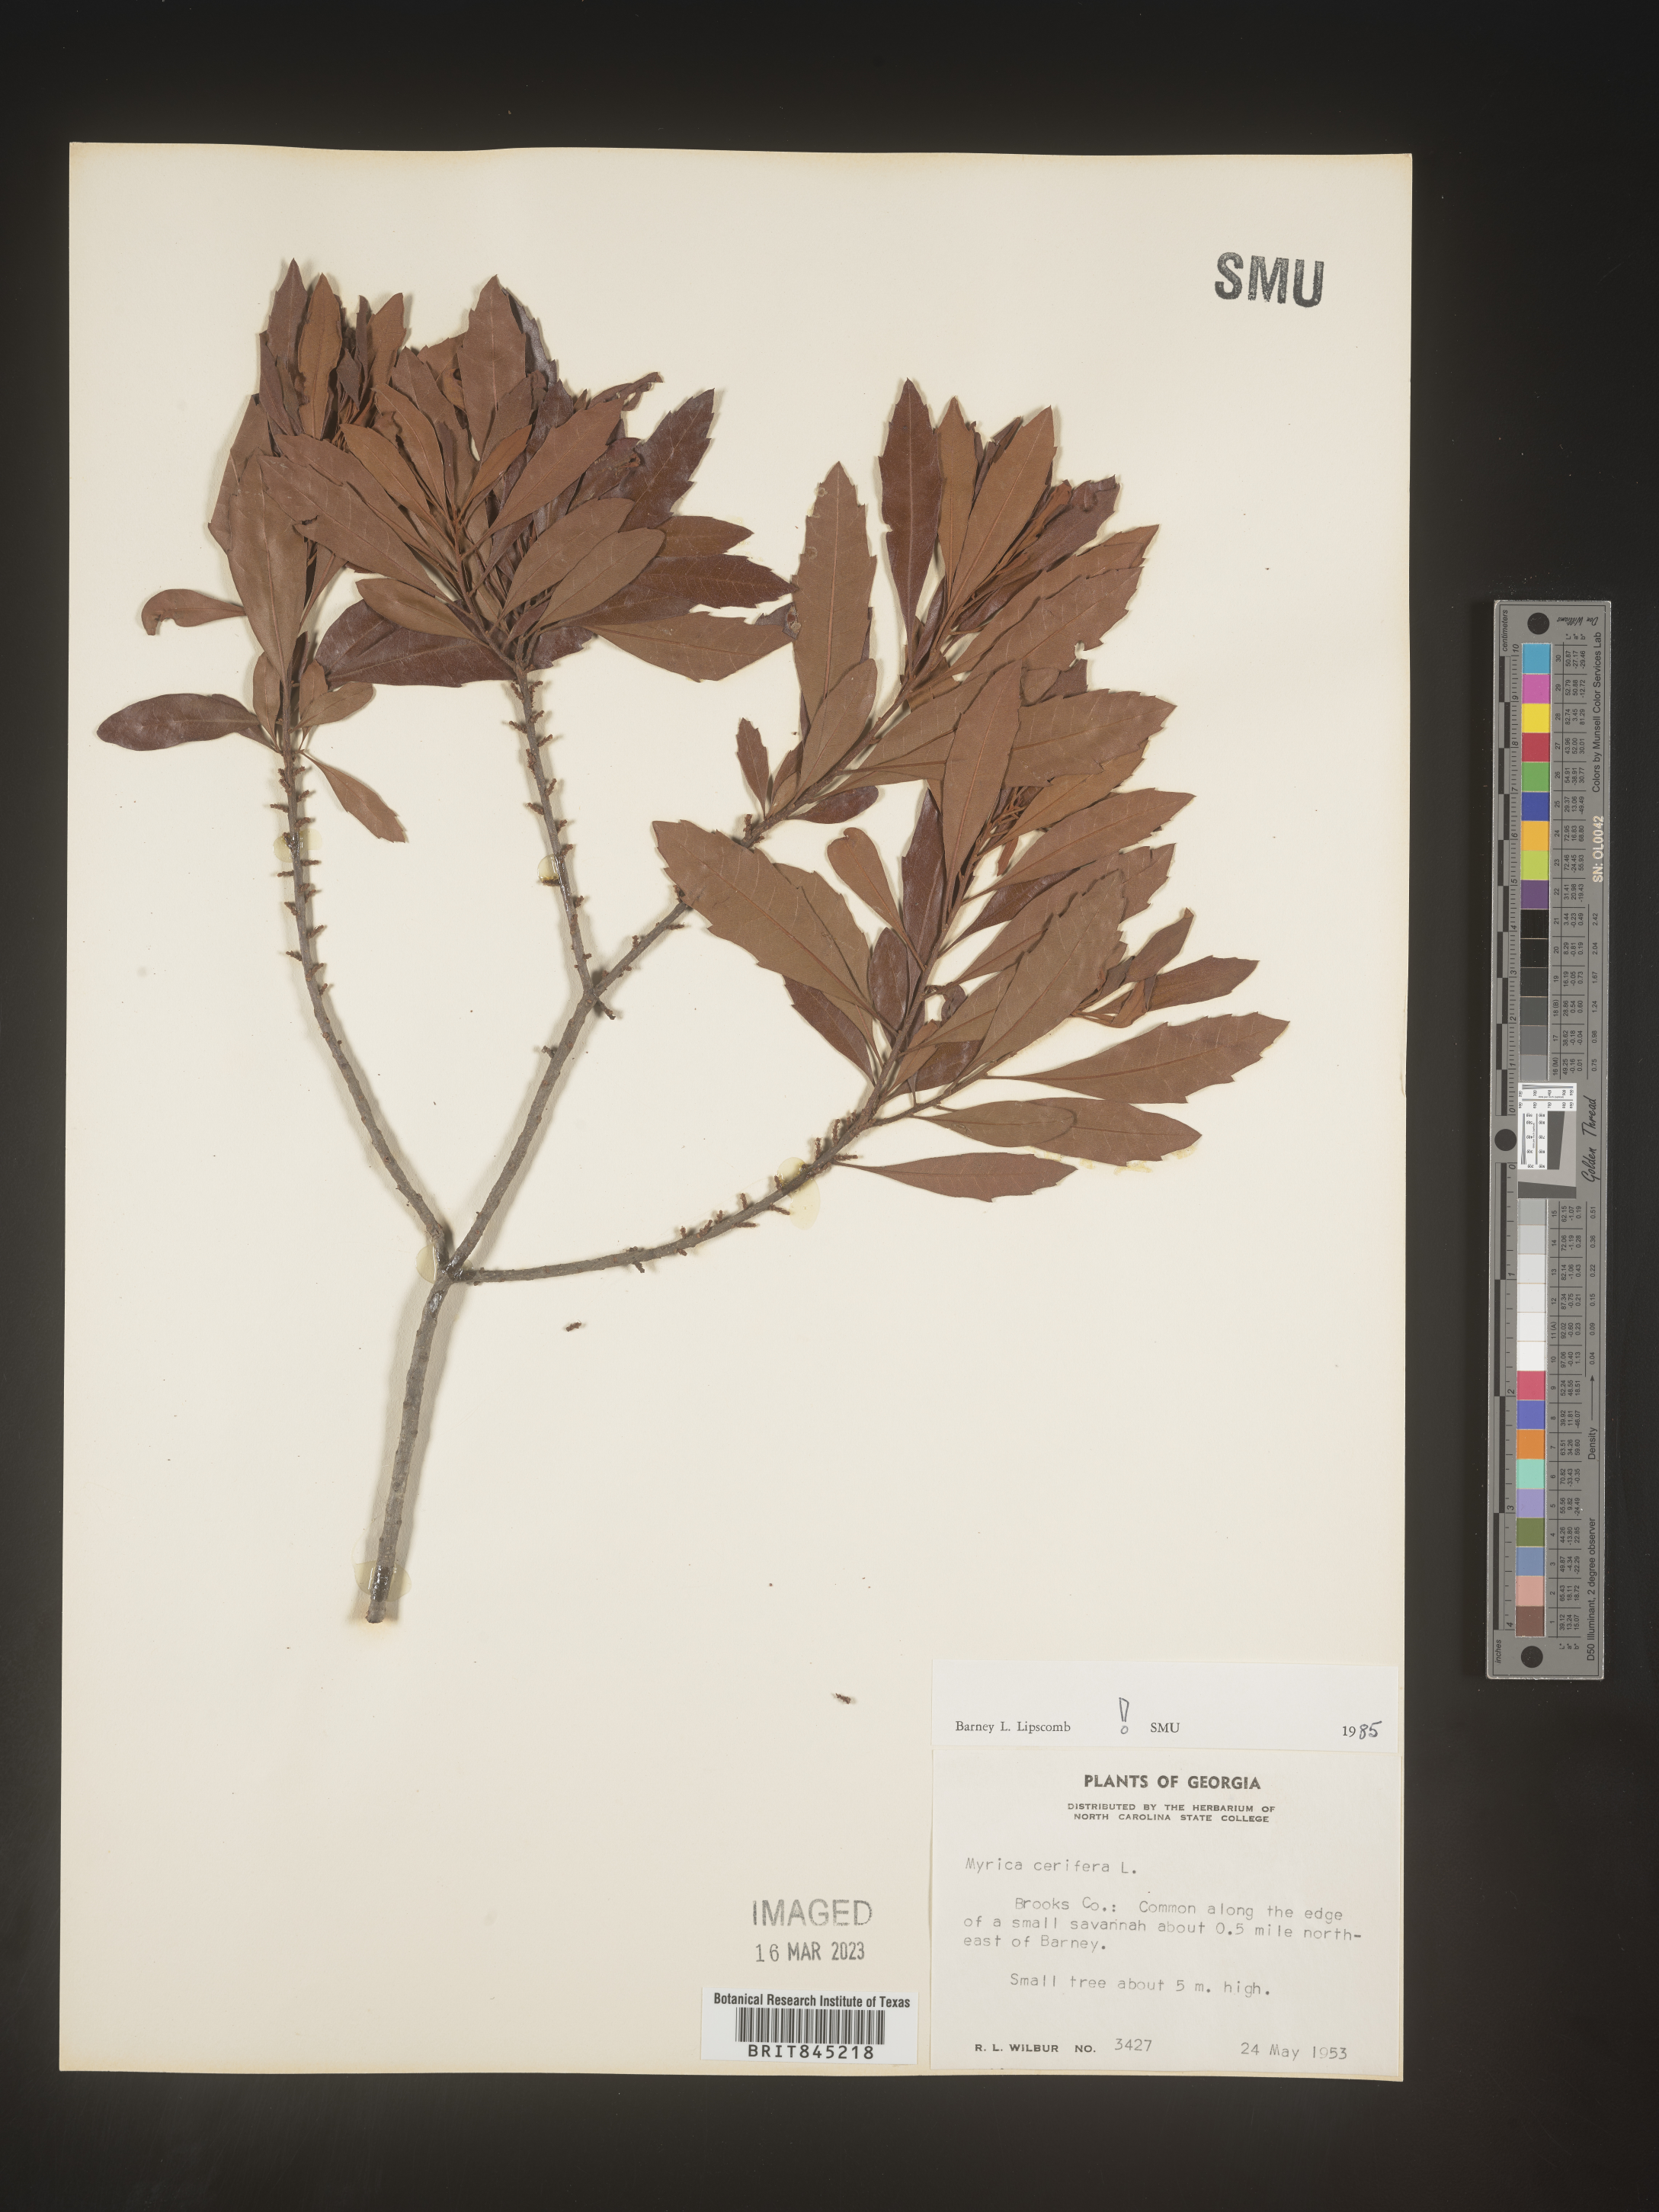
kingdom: Plantae
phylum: Tracheophyta
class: Magnoliopsida
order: Fagales
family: Myricaceae
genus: Morella
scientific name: Morella cerifera
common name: Wax myrtle
